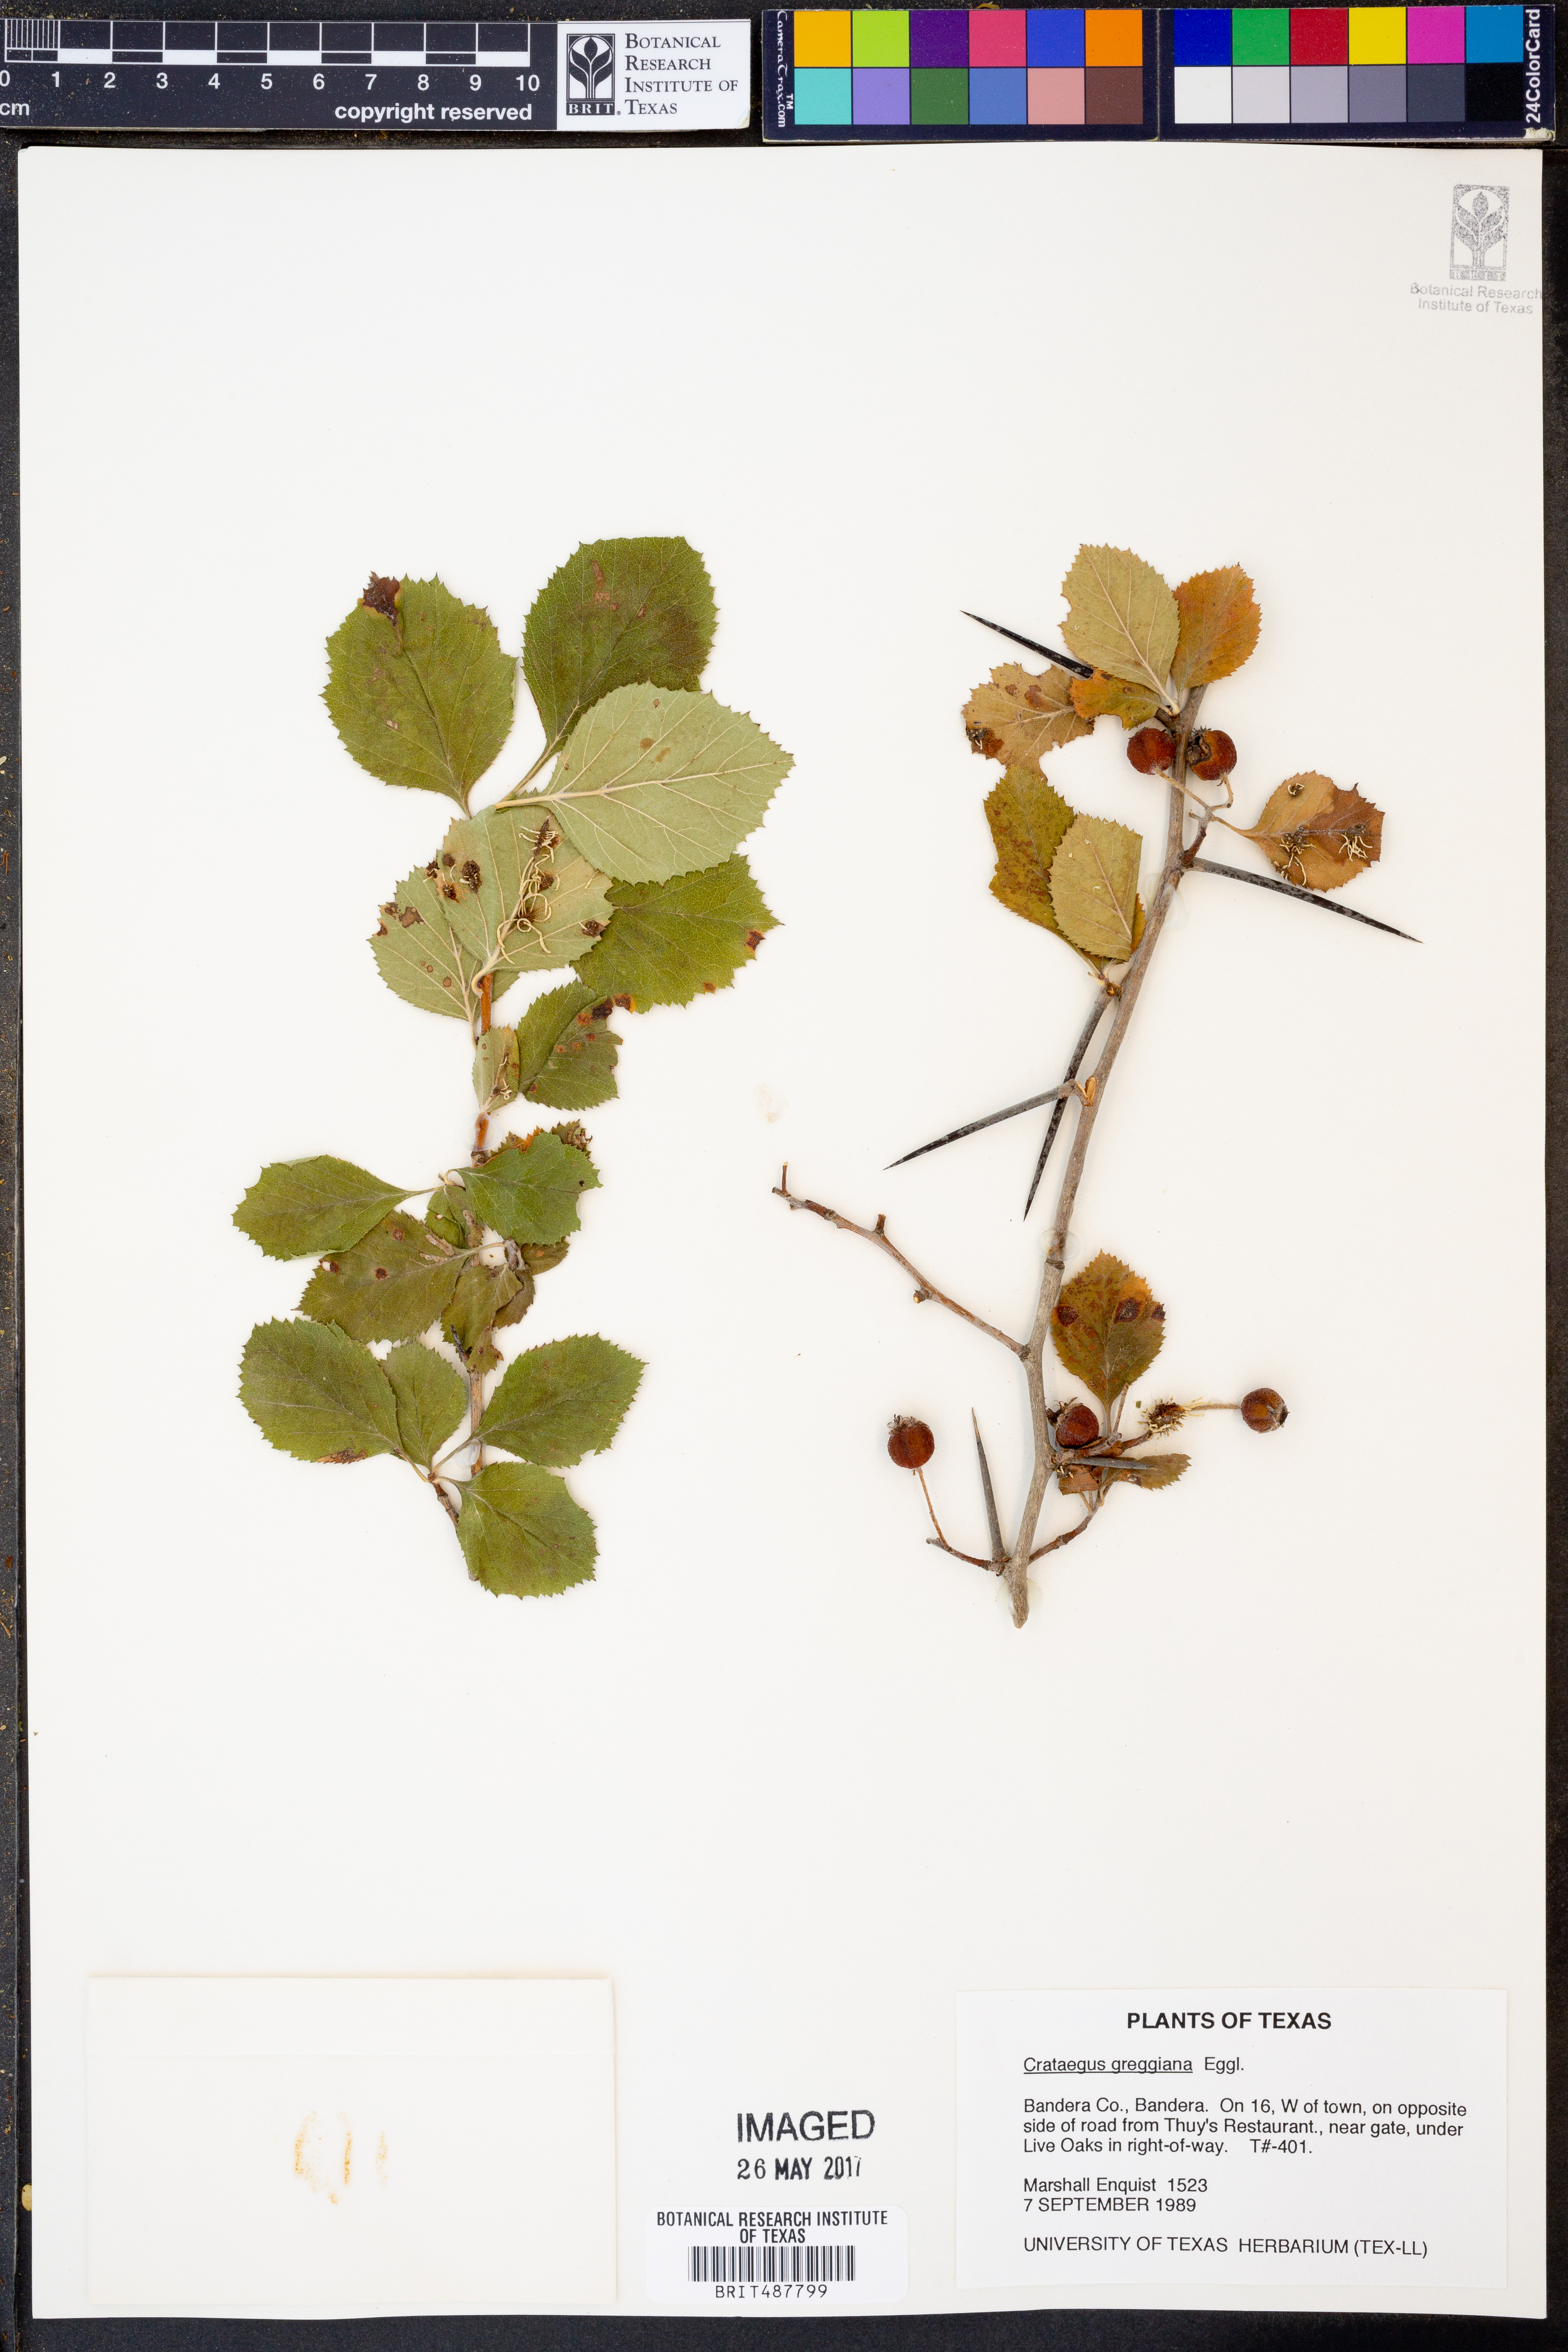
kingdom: Plantae
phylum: Tracheophyta
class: Magnoliopsida
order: Rosales
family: Rosaceae
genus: Crataegus
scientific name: Crataegus greggiana
